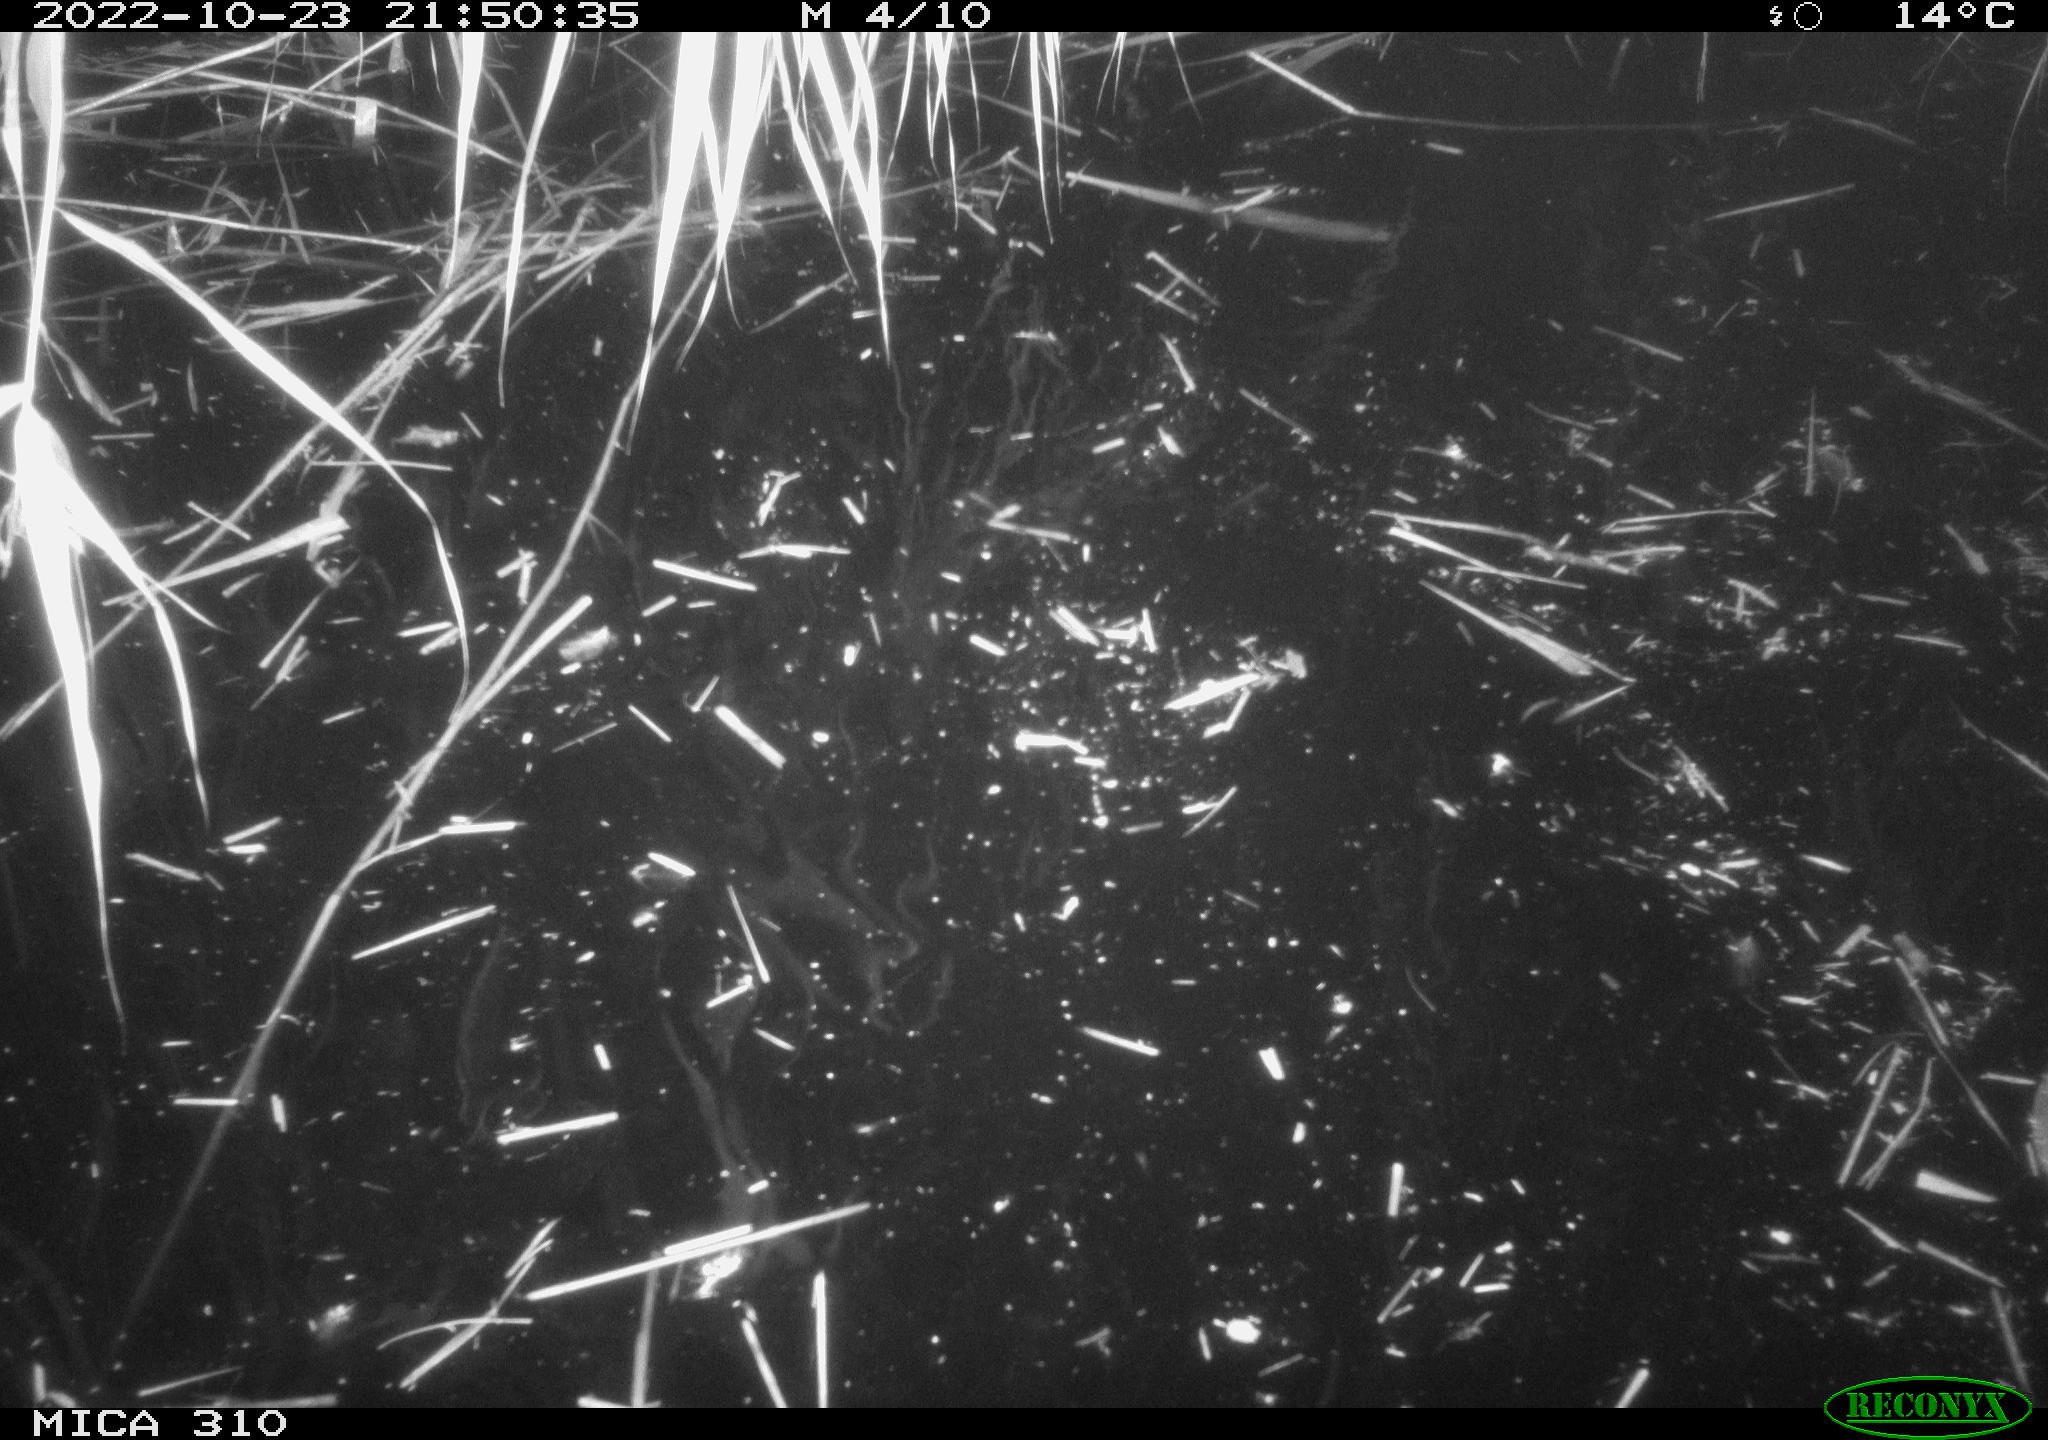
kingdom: Animalia
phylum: Chordata
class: Mammalia
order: Rodentia
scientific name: Rodentia
